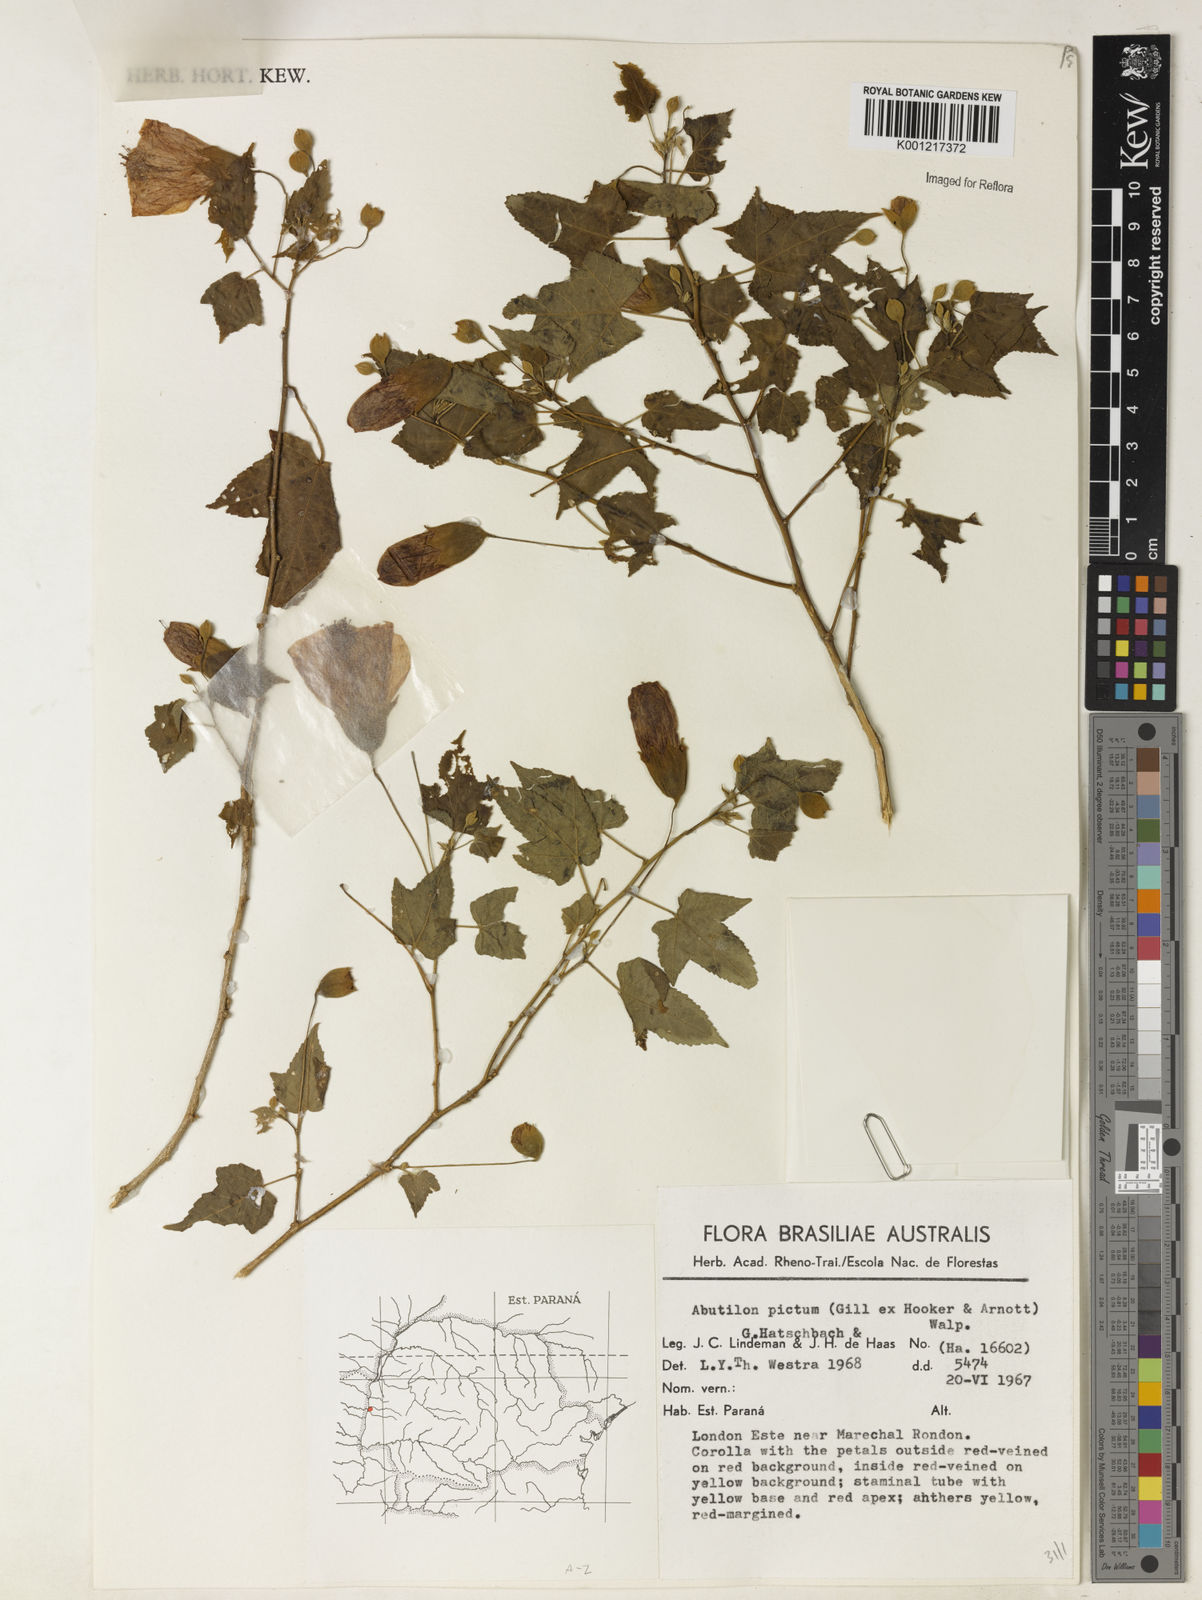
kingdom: Plantae
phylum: Tracheophyta
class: Magnoliopsida
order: Malvales
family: Malvaceae
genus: Callianthe
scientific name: Callianthe picta
